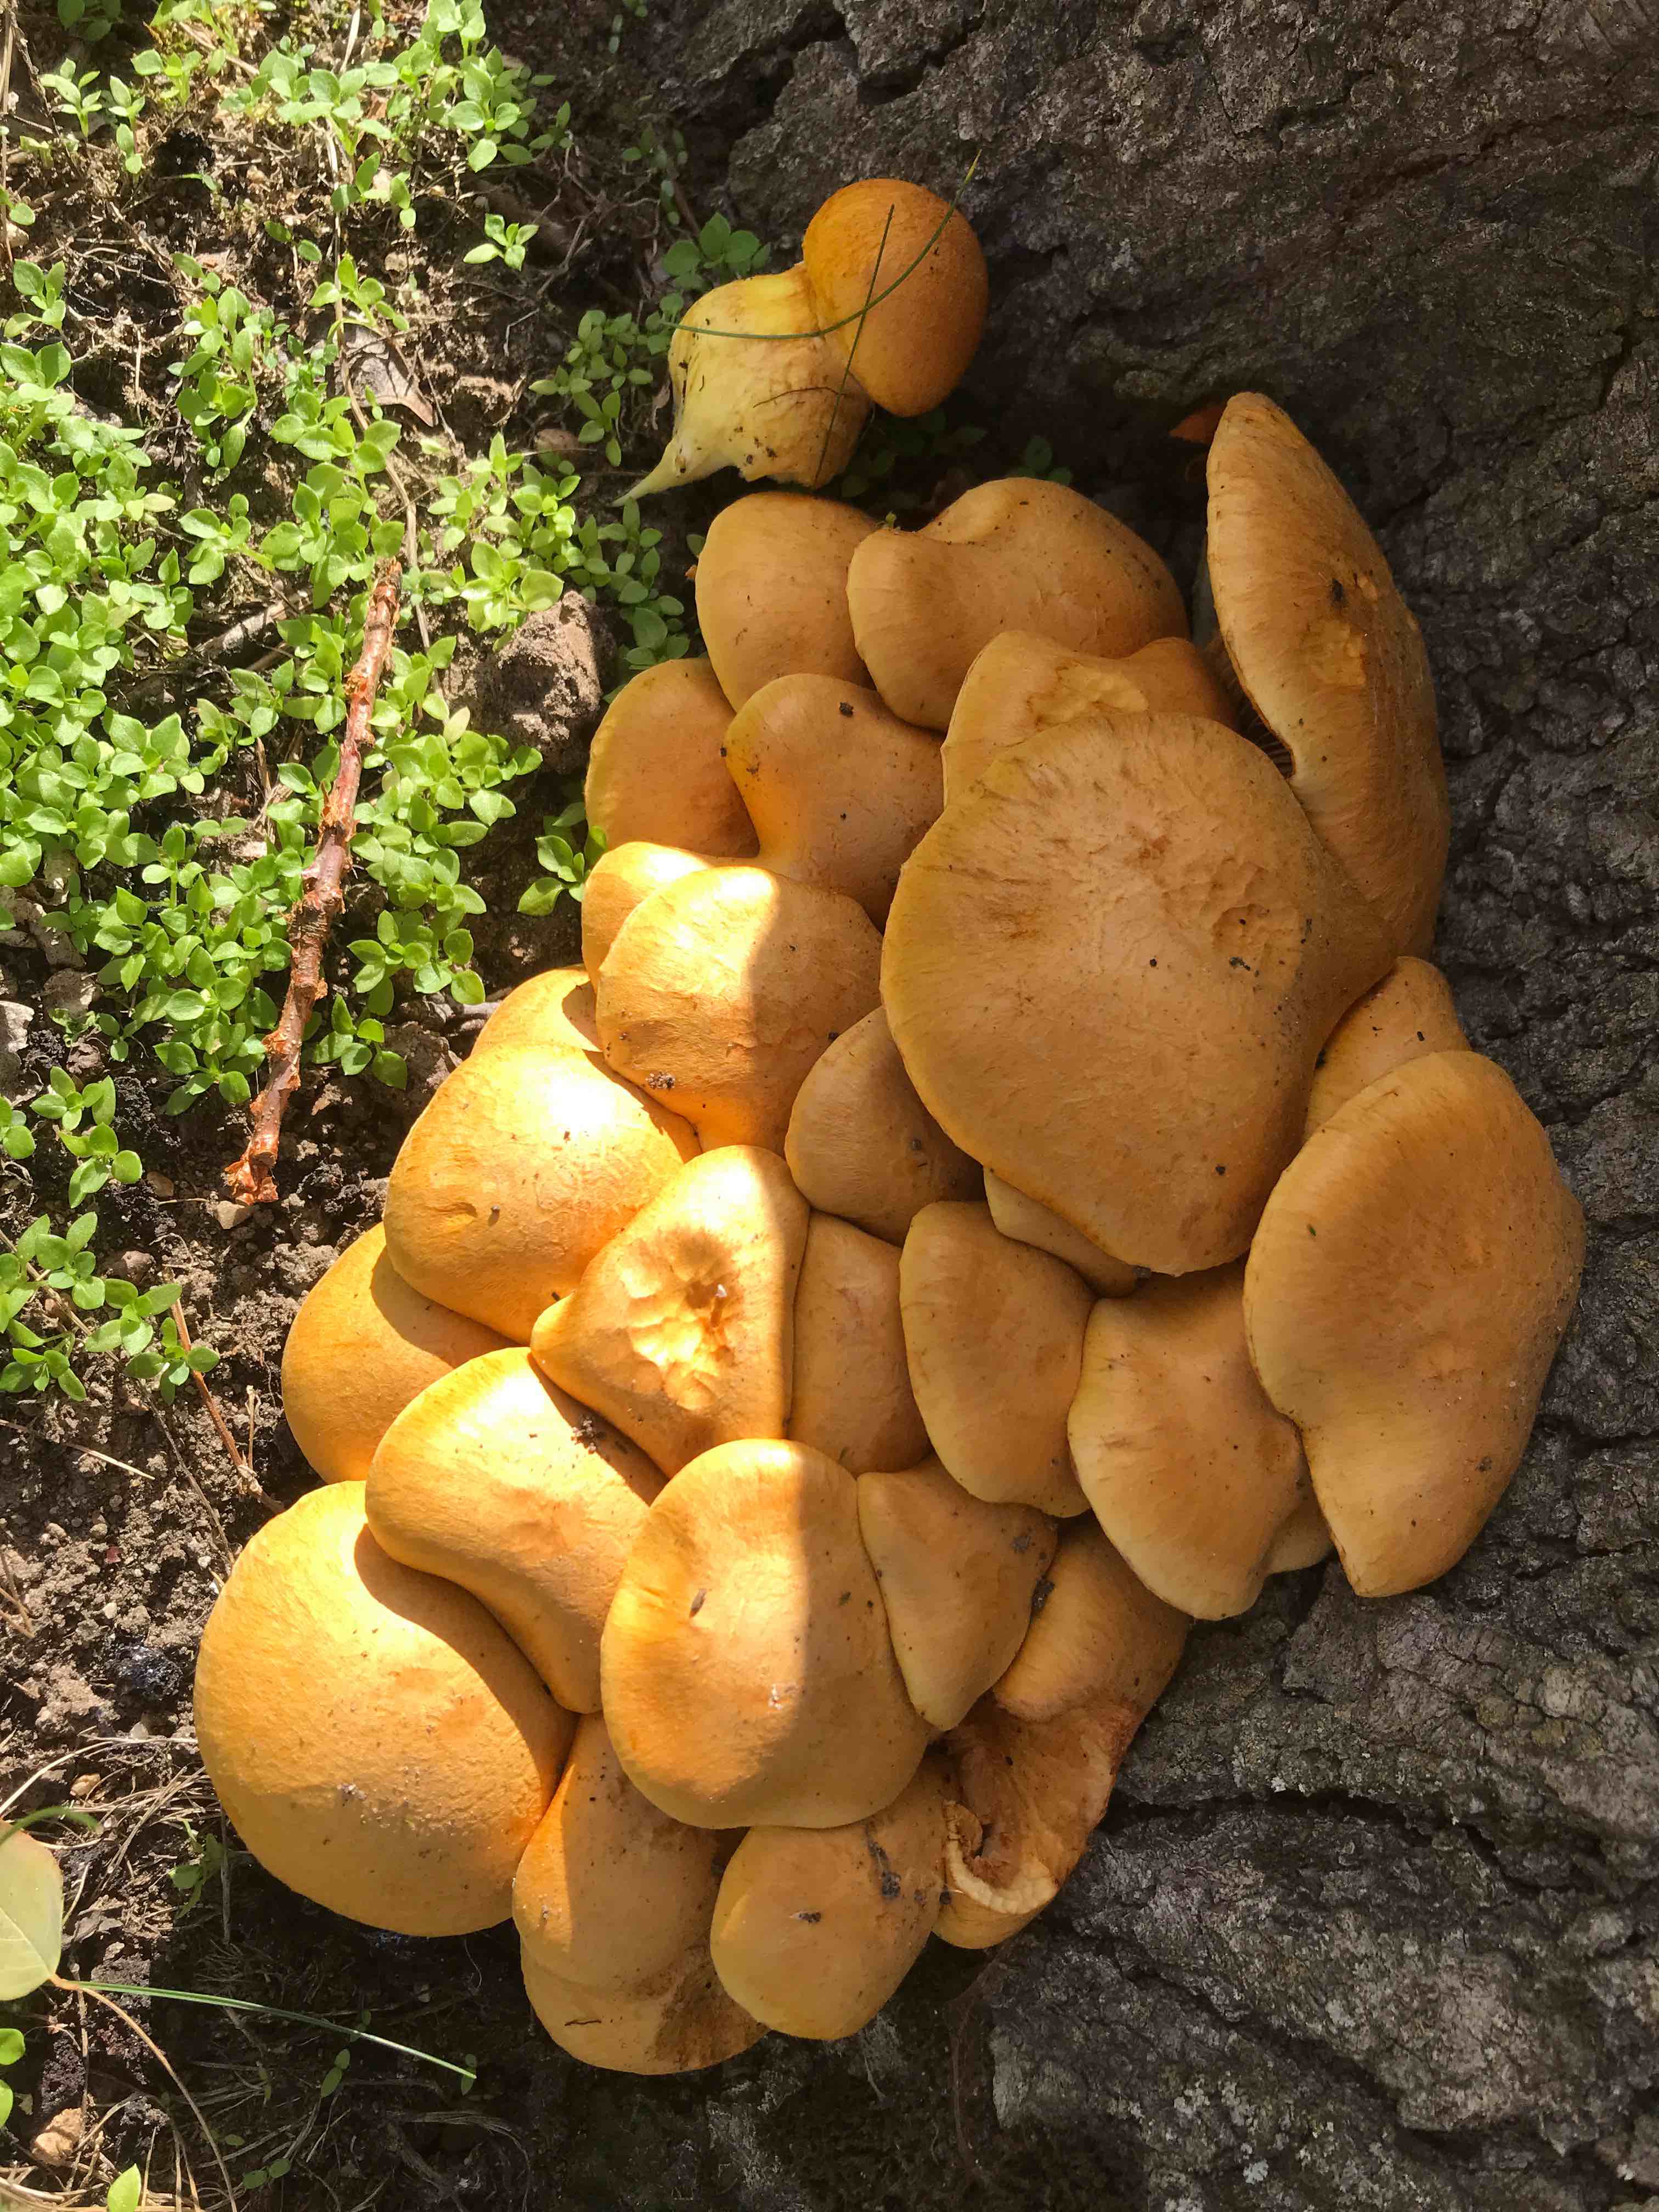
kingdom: Fungi
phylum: Basidiomycota
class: Agaricomycetes
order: Agaricales
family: Hymenogastraceae
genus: Gymnopilus
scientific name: Gymnopilus spectabilis
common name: fibret flammehat
